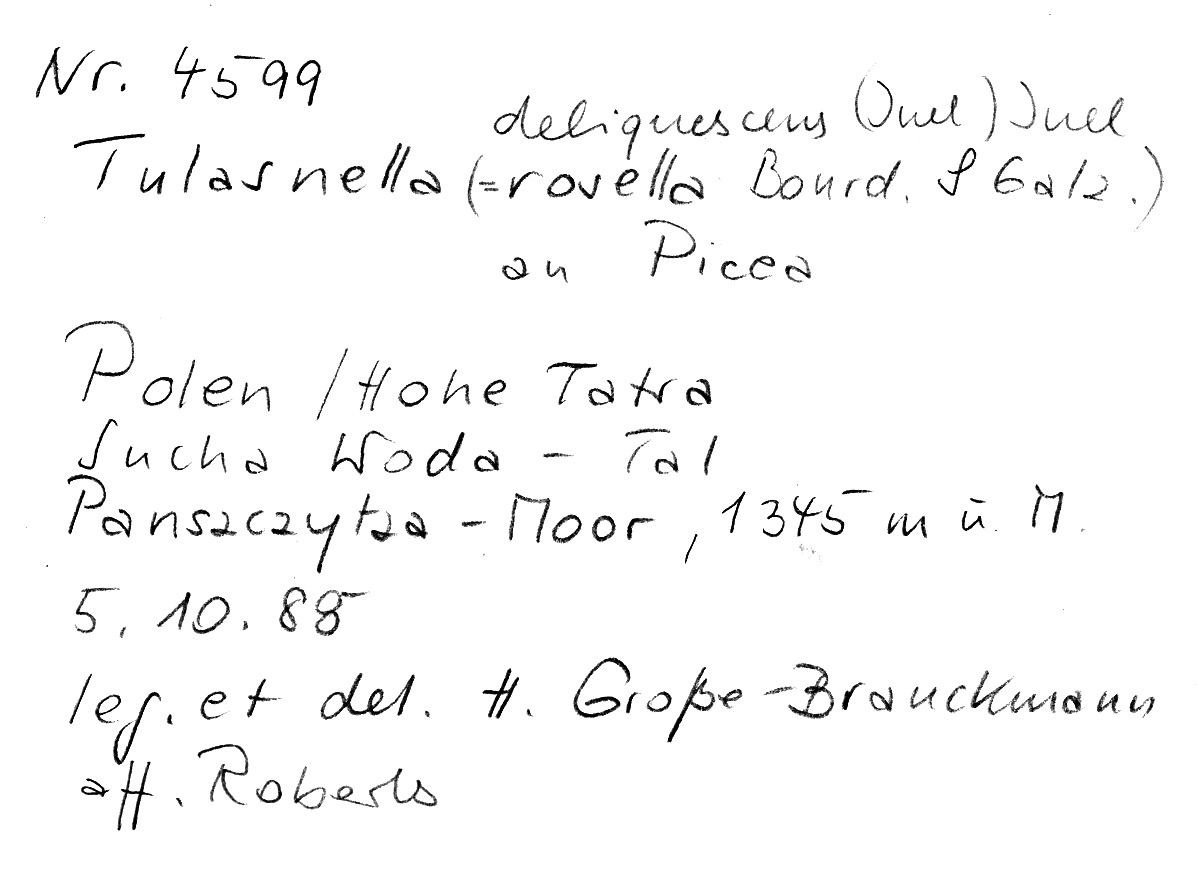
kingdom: Fungi
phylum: Basidiomycota
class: Agaricomycetes
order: Cantharellales
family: Tulasnellaceae
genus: Tulasnella
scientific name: Tulasnella deliquescens
